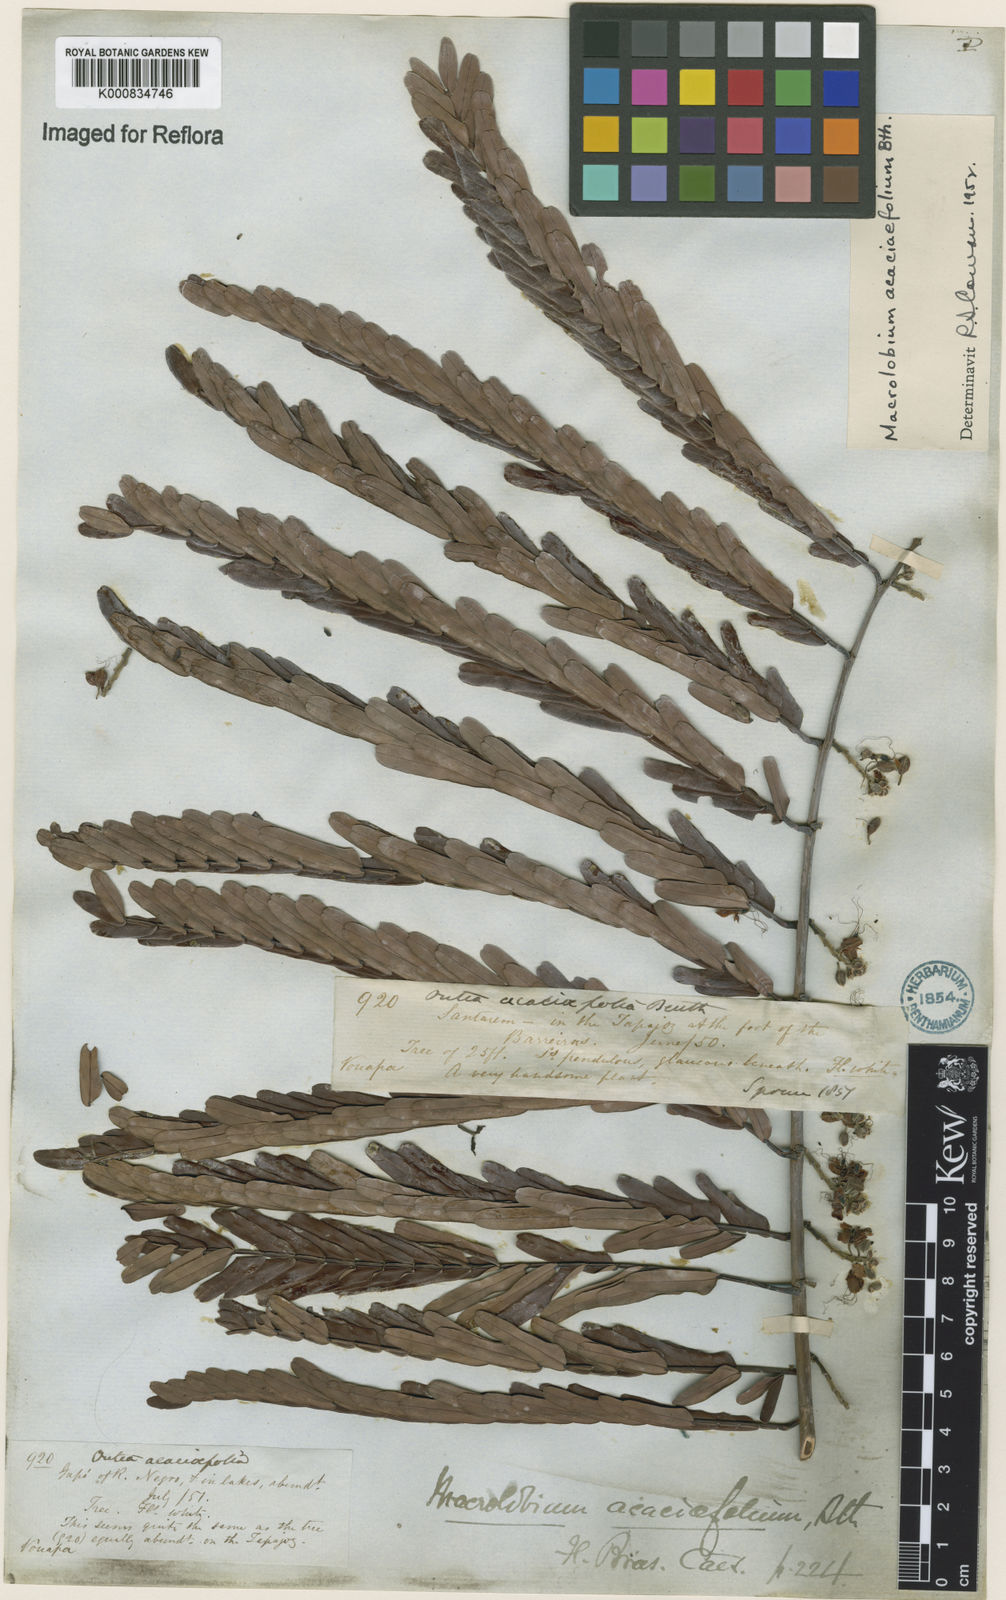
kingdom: Plantae
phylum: Tracheophyta
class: Magnoliopsida
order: Fabales
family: Fabaceae
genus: Macrolobium
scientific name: Macrolobium acaciifolium
